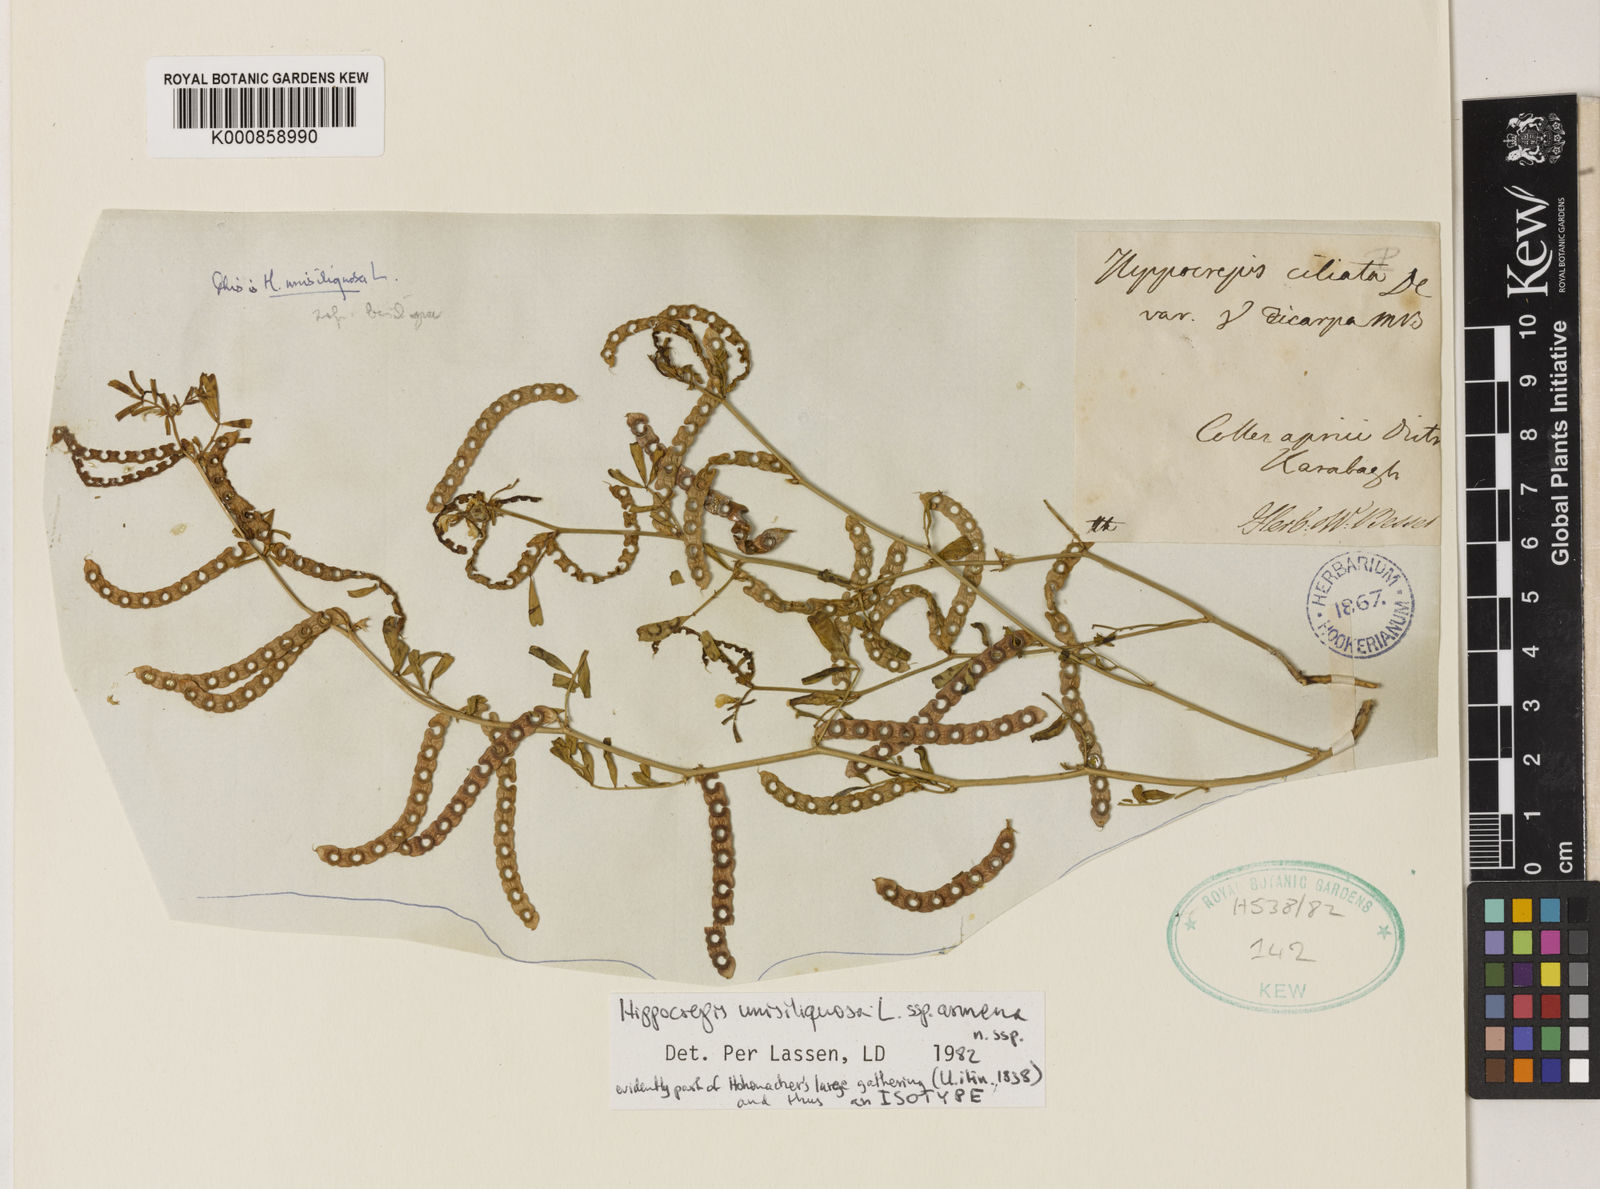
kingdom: Plantae
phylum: Tracheophyta
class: Magnoliopsida
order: Fabales
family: Fabaceae
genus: Hippocrepis
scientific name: Hippocrepis unisiliquosa
